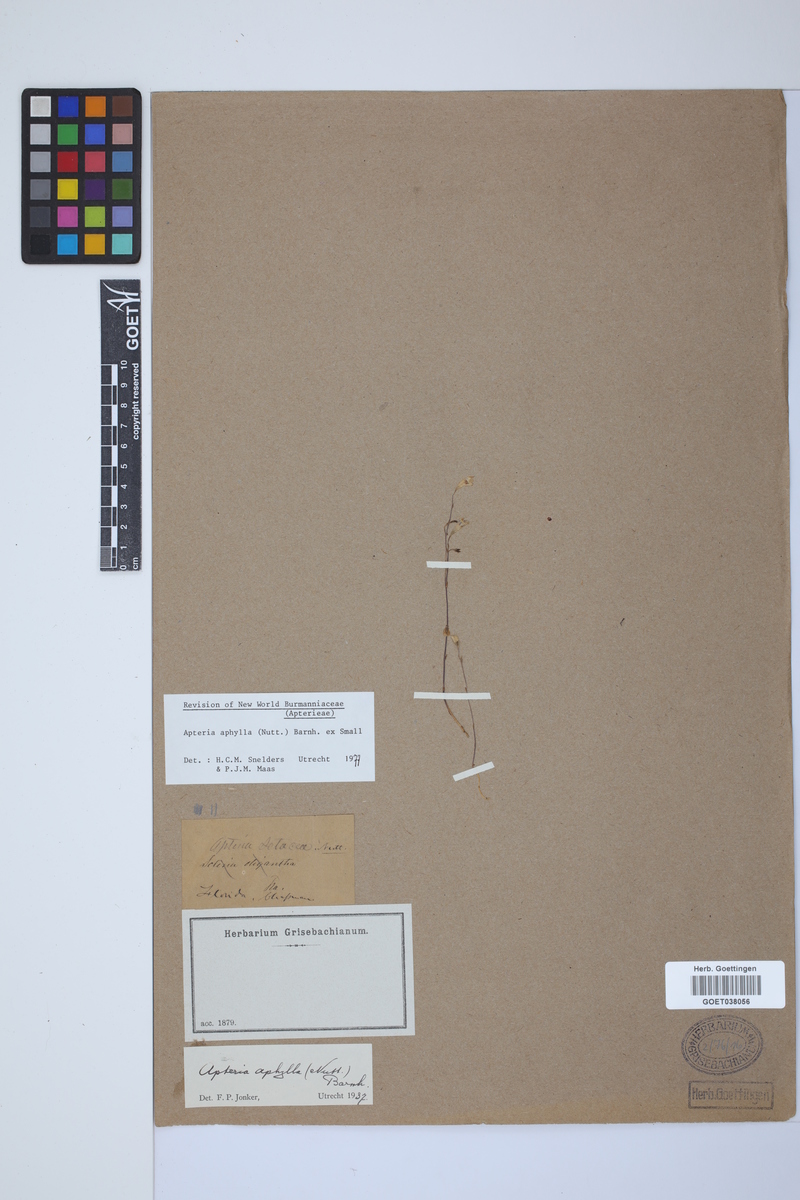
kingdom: Plantae
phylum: Tracheophyta
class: Liliopsida
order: Dioscoreales
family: Burmanniaceae
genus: Apteria
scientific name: Apteria aphylla
